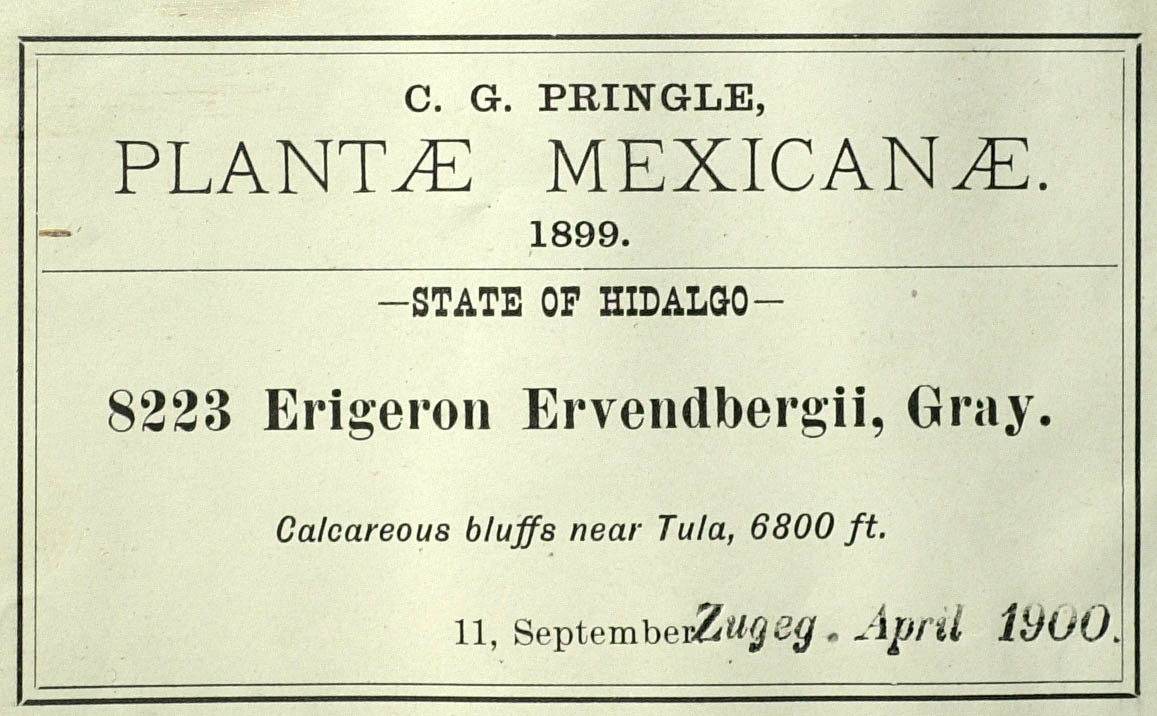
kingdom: Plantae
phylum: Tracheophyta
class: Magnoliopsida
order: Asterales
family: Asteraceae
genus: Erigeron
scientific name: Erigeron calcicola
